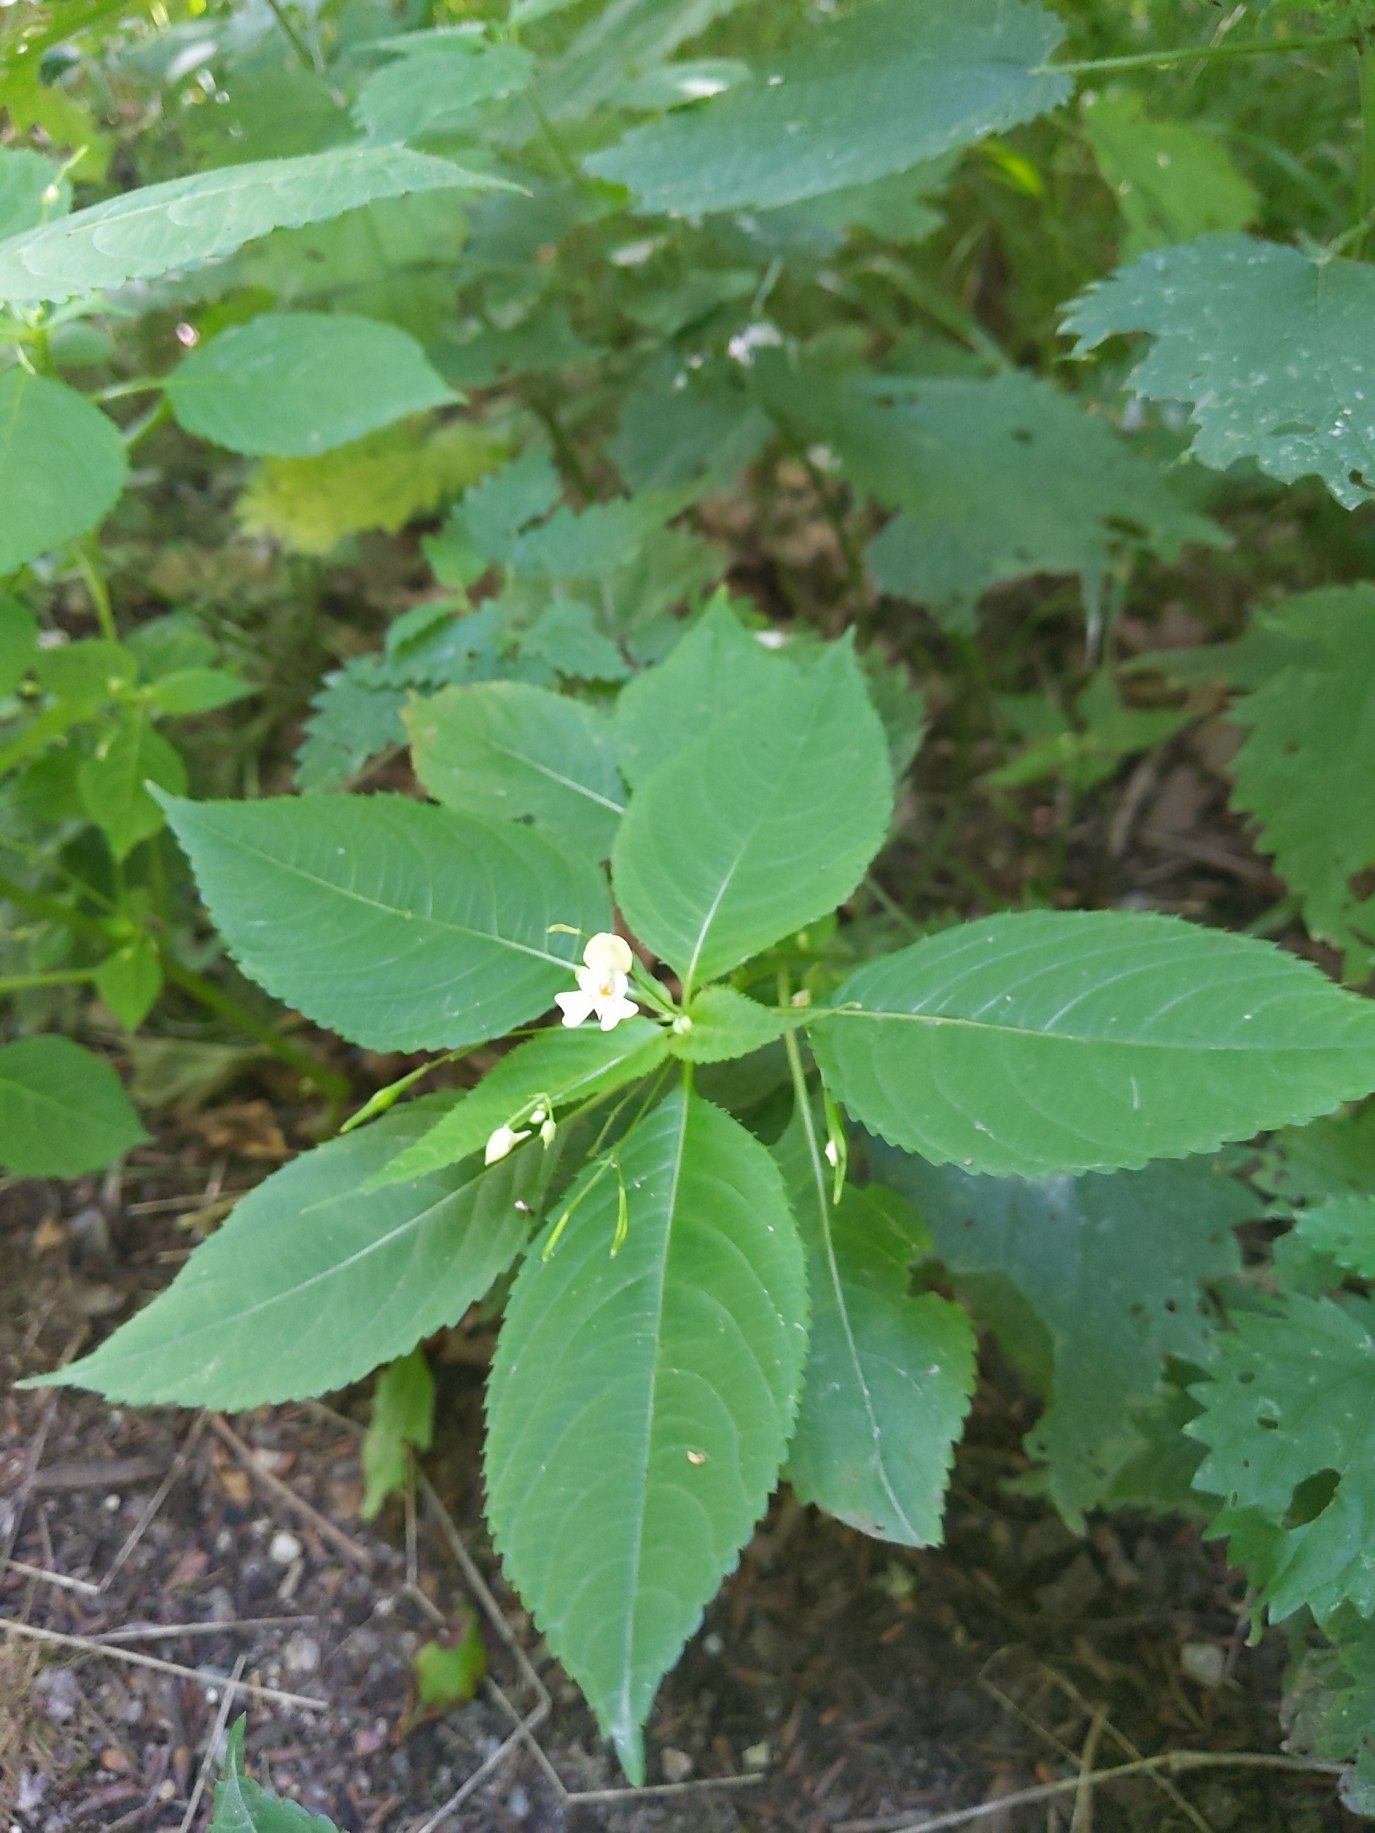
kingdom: Plantae
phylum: Tracheophyta
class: Magnoliopsida
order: Ericales
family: Balsaminaceae
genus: Impatiens
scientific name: Impatiens parviflora
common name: Småblomstret balsamin
